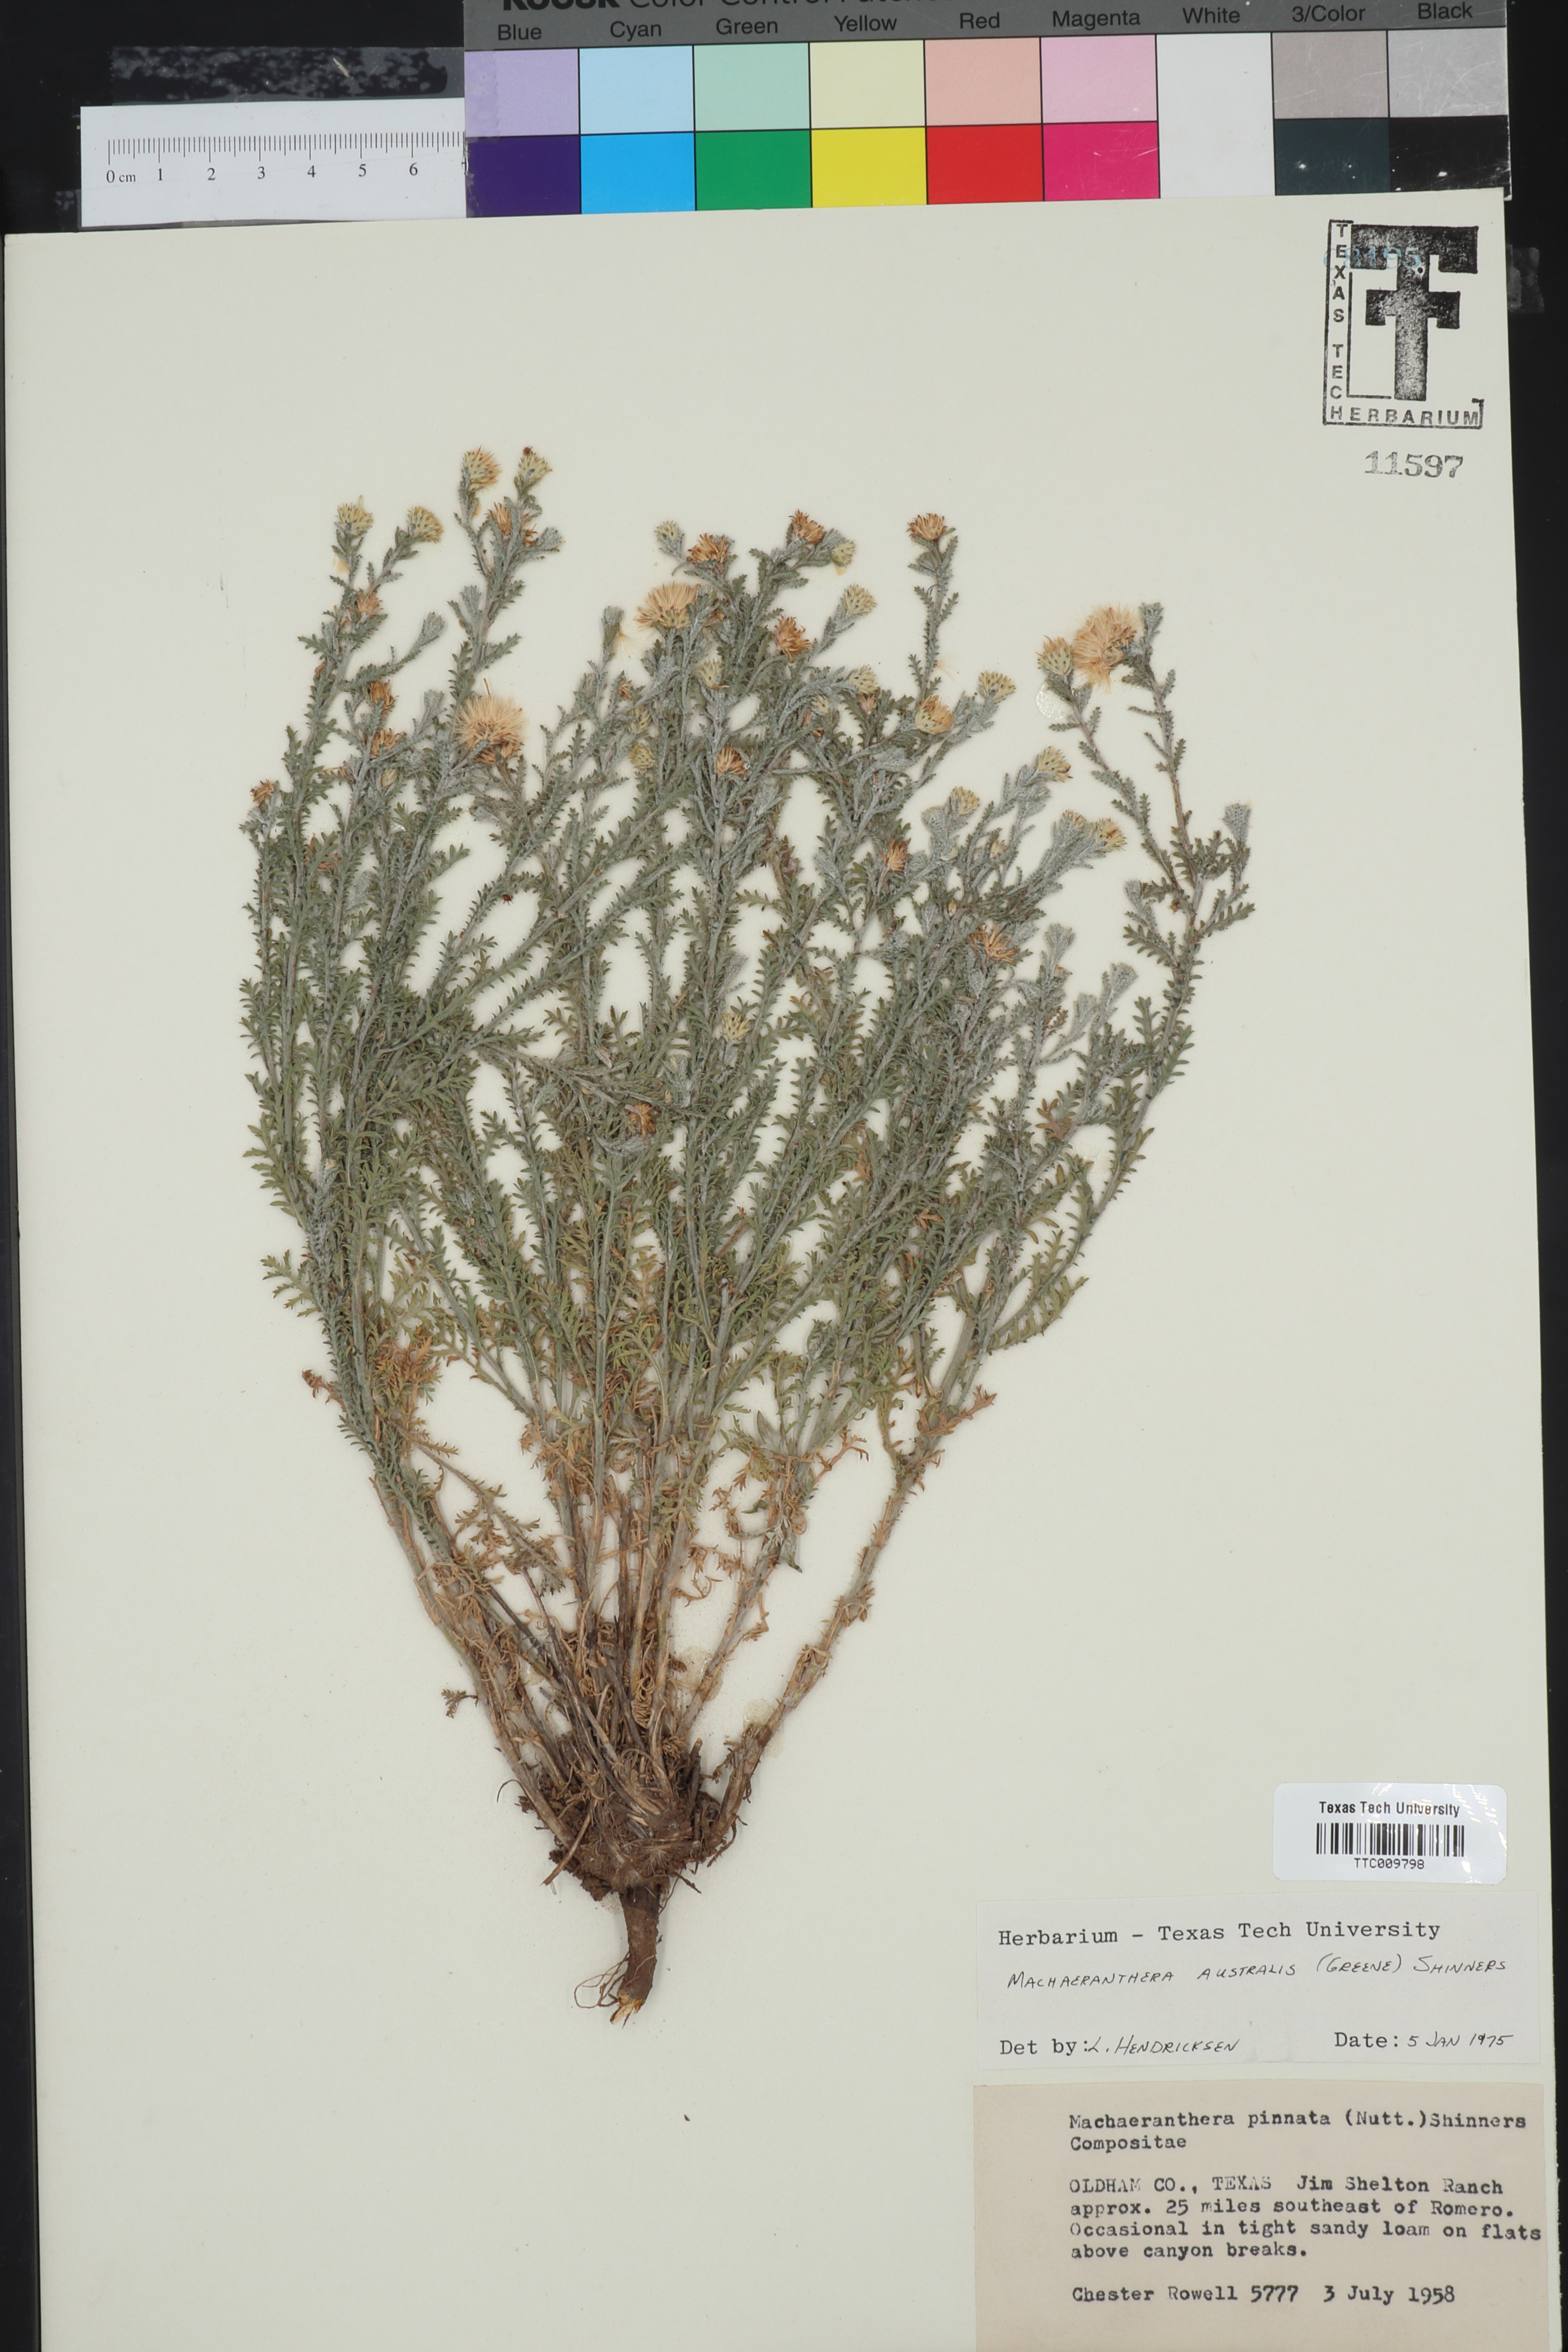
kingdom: Plantae
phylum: Tracheophyta
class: Magnoliopsida
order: Asterales
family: Asteraceae
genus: Xanthisma
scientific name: Xanthisma spinulosum
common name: Spiny goldenweed
